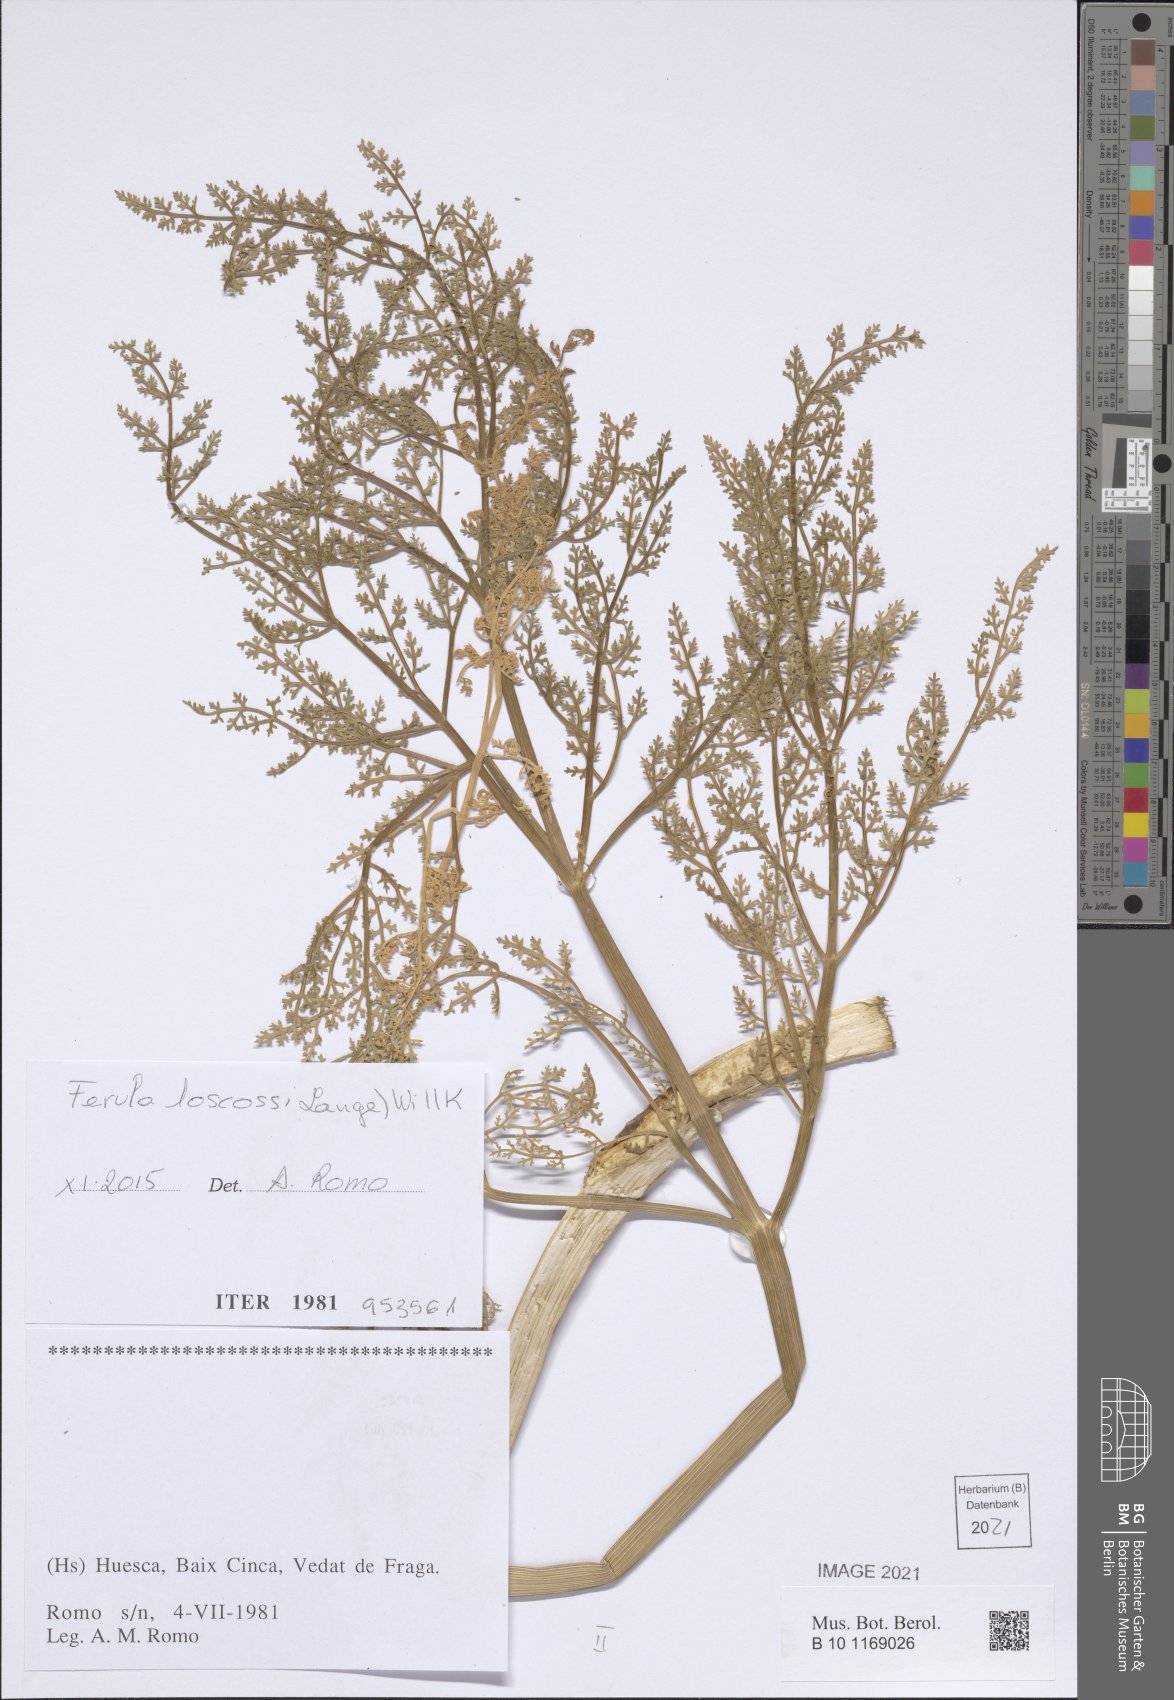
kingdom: Plantae
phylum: Tracheophyta
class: Magnoliopsida
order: Apiales
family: Apiaceae
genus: Ferula
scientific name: Ferula loscosii
